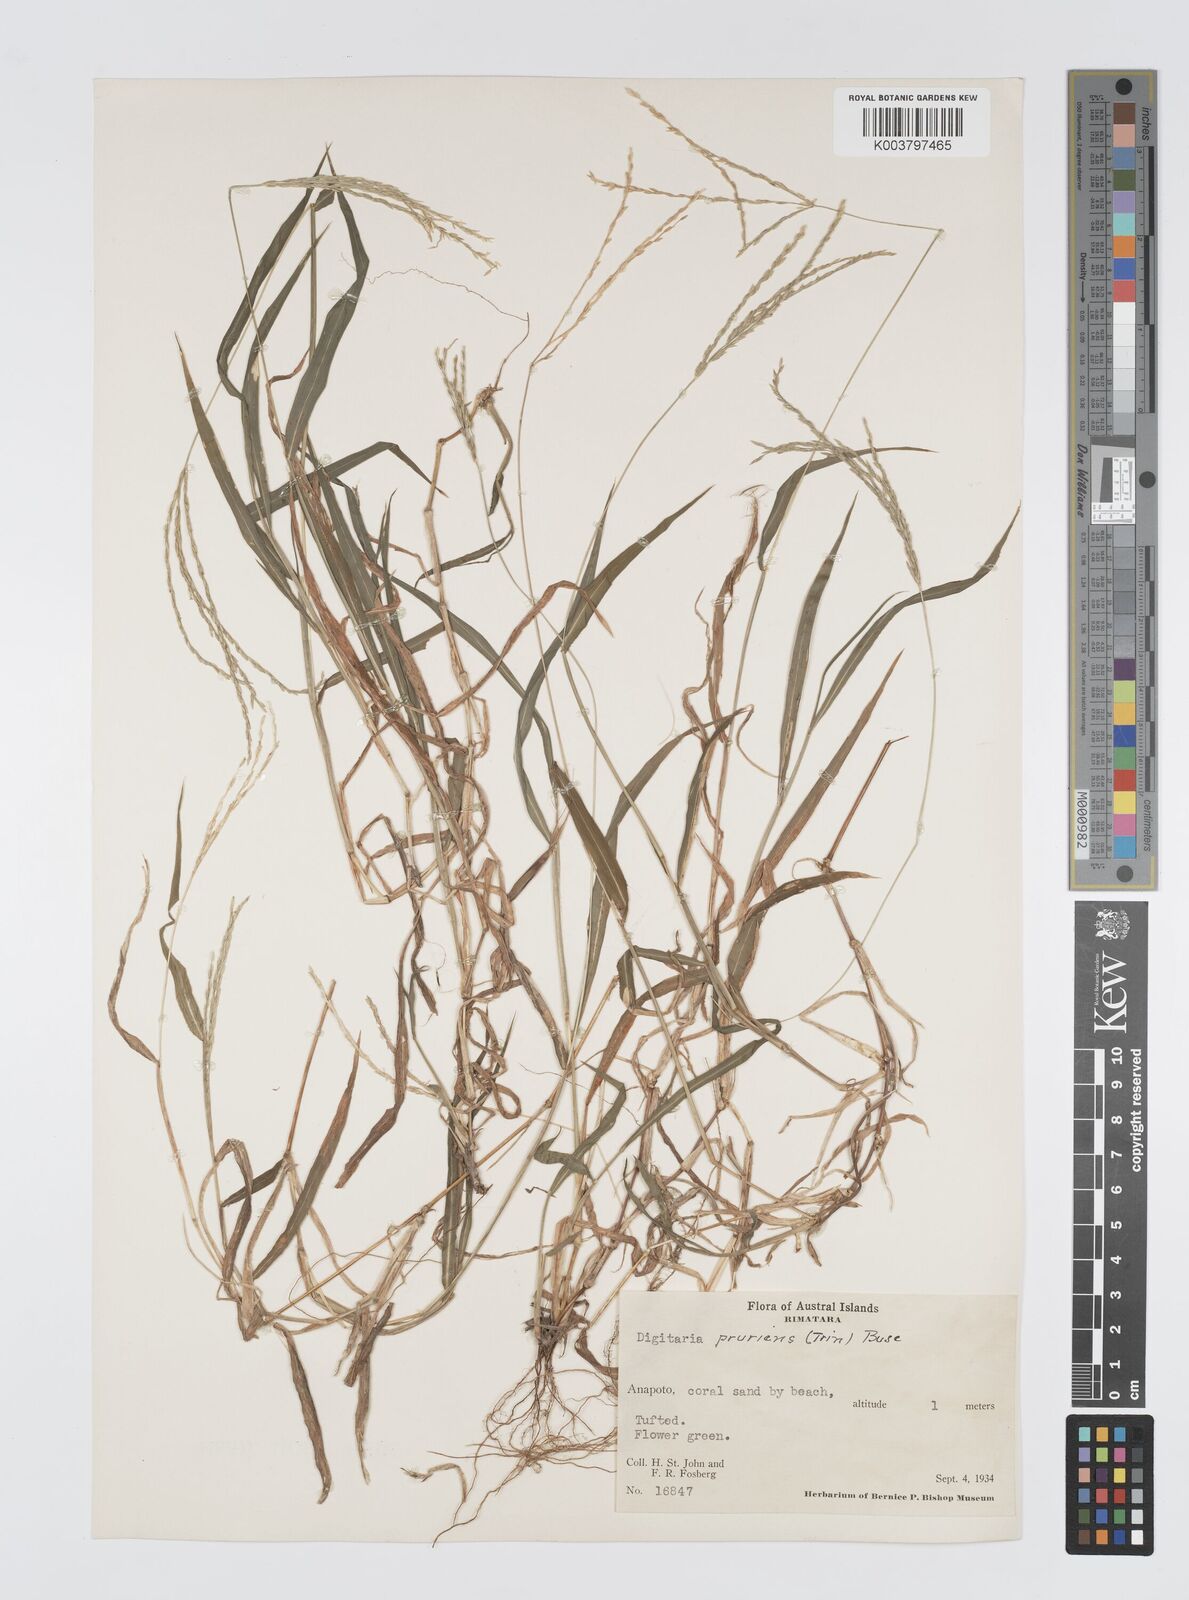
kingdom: Plantae
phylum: Tracheophyta
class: Liliopsida
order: Poales
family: Poaceae
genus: Digitaria
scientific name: Digitaria setigera
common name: East indian crabgrass
